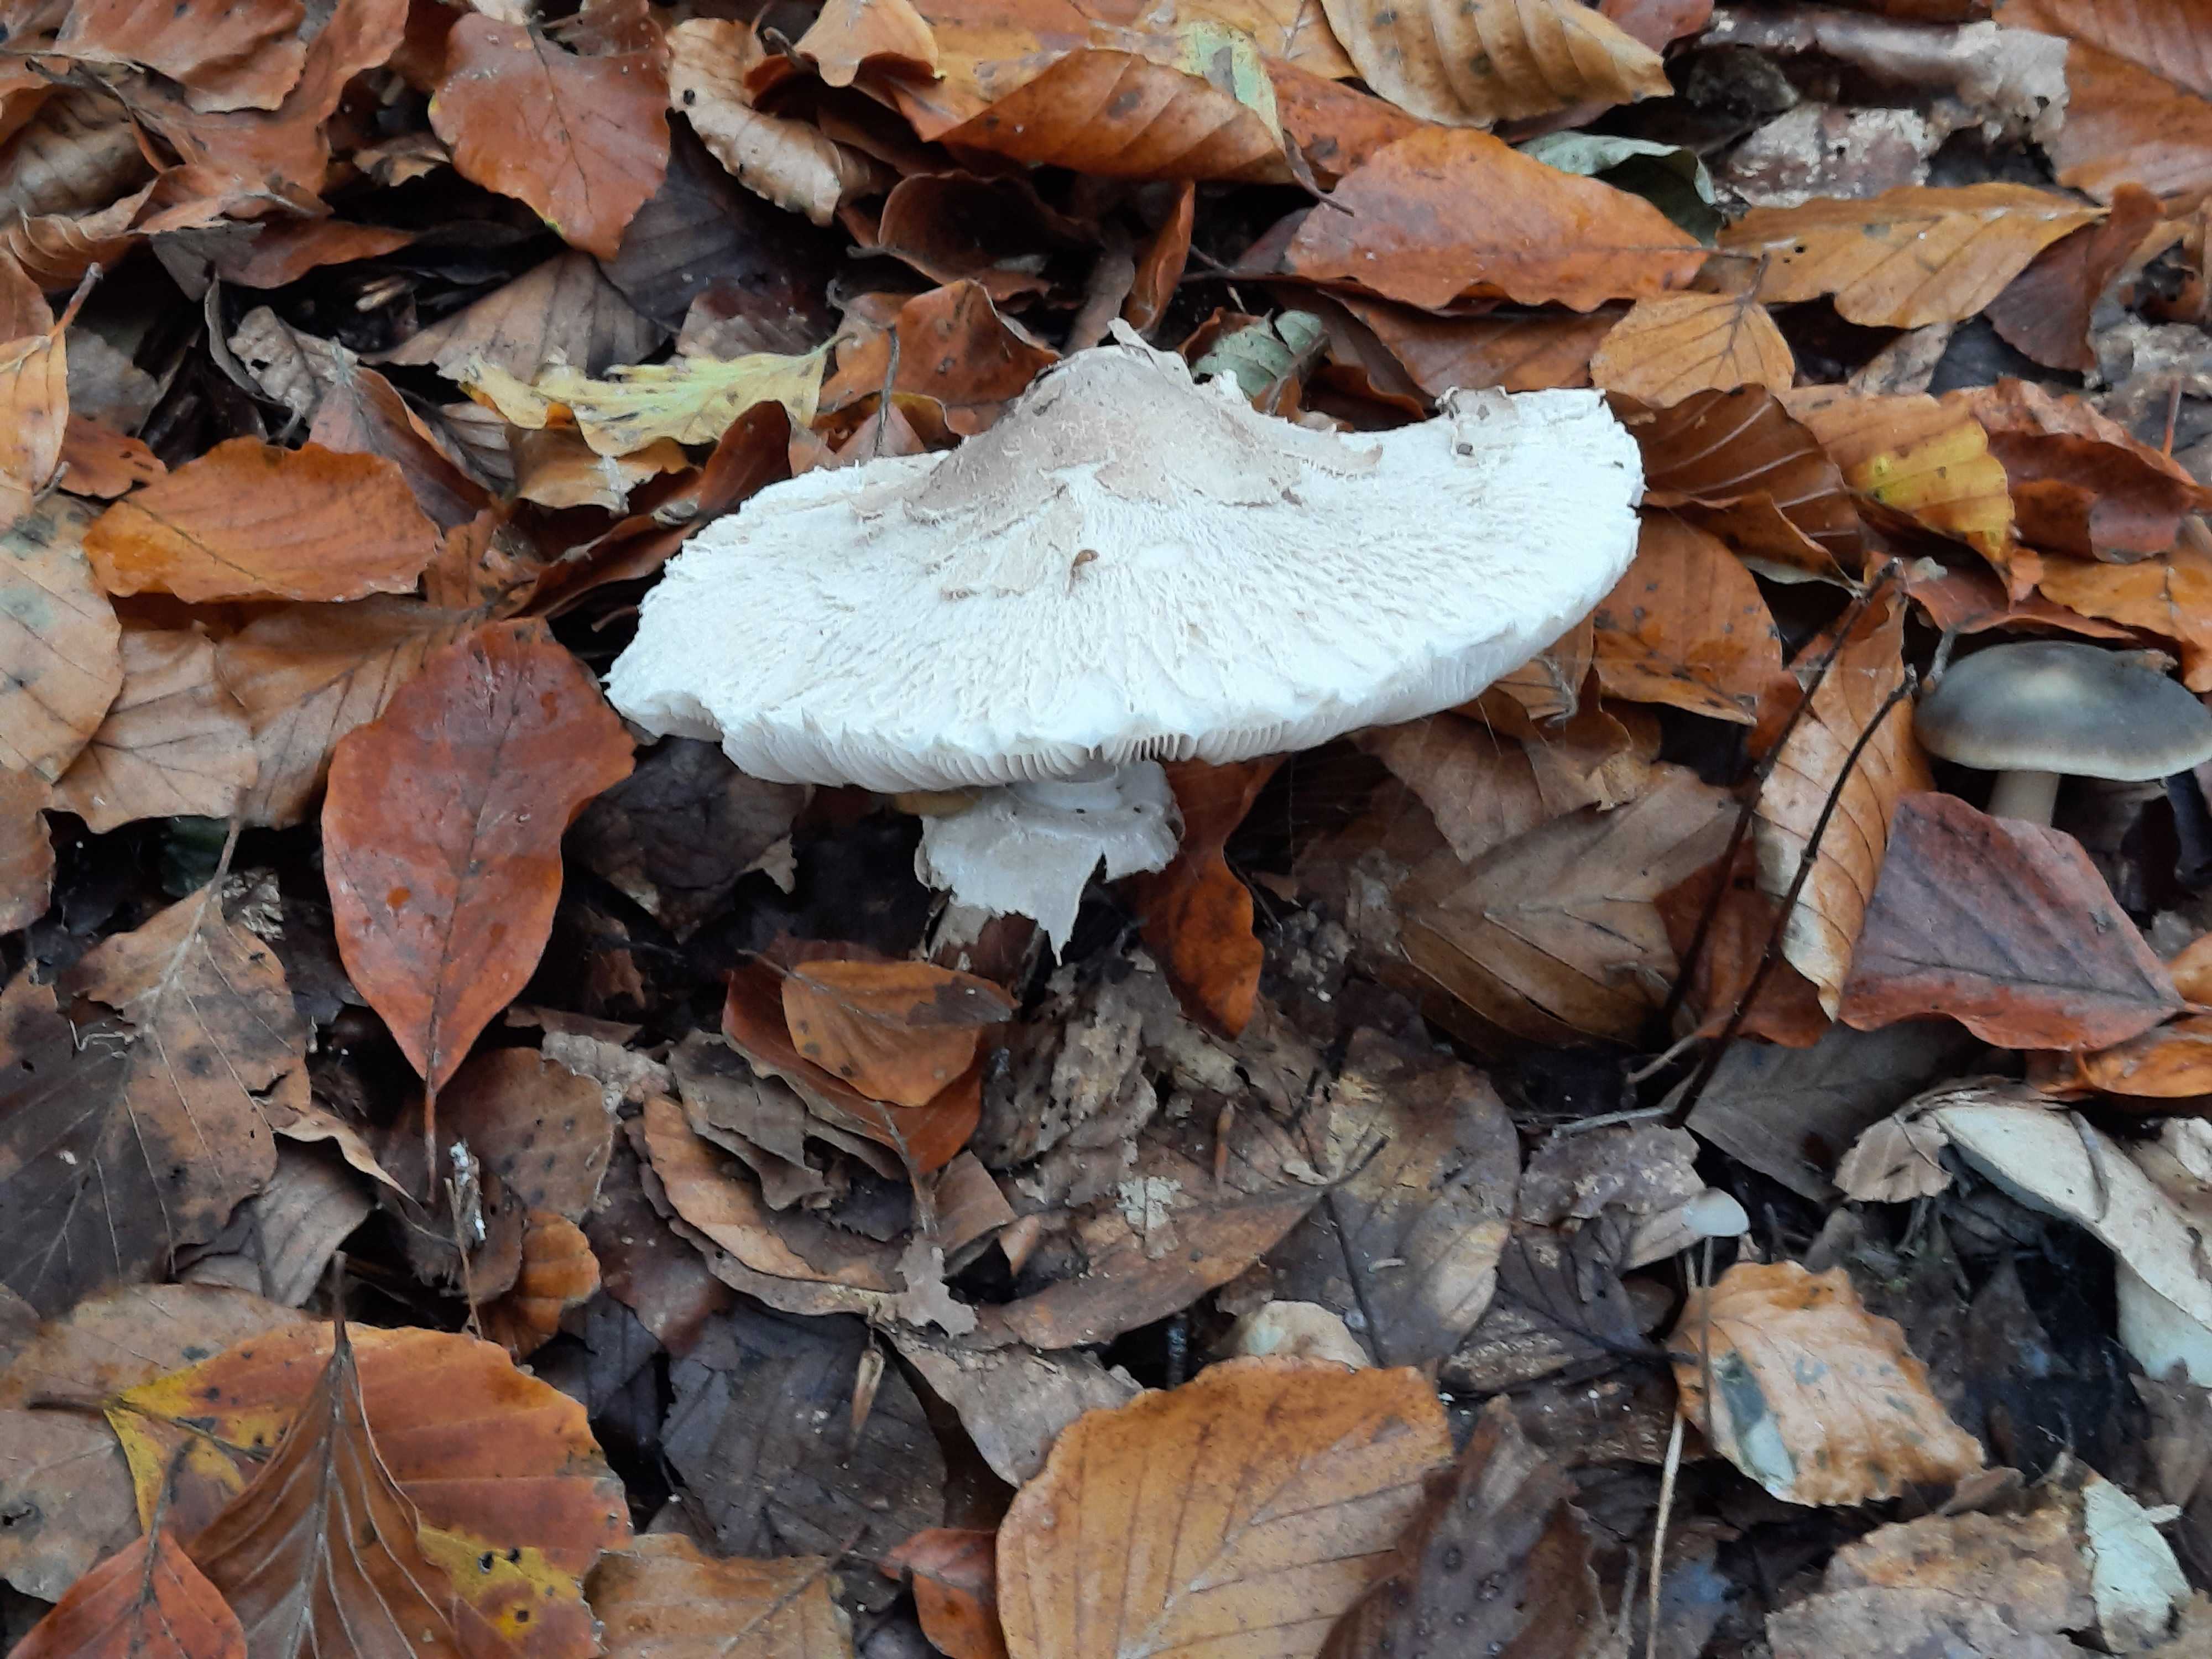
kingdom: Fungi
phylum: Basidiomycota
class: Agaricomycetes
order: Agaricales
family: Agaricaceae
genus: Macrolepiota
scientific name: Macrolepiota mastoidea
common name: puklet kæmpeparasolhat
